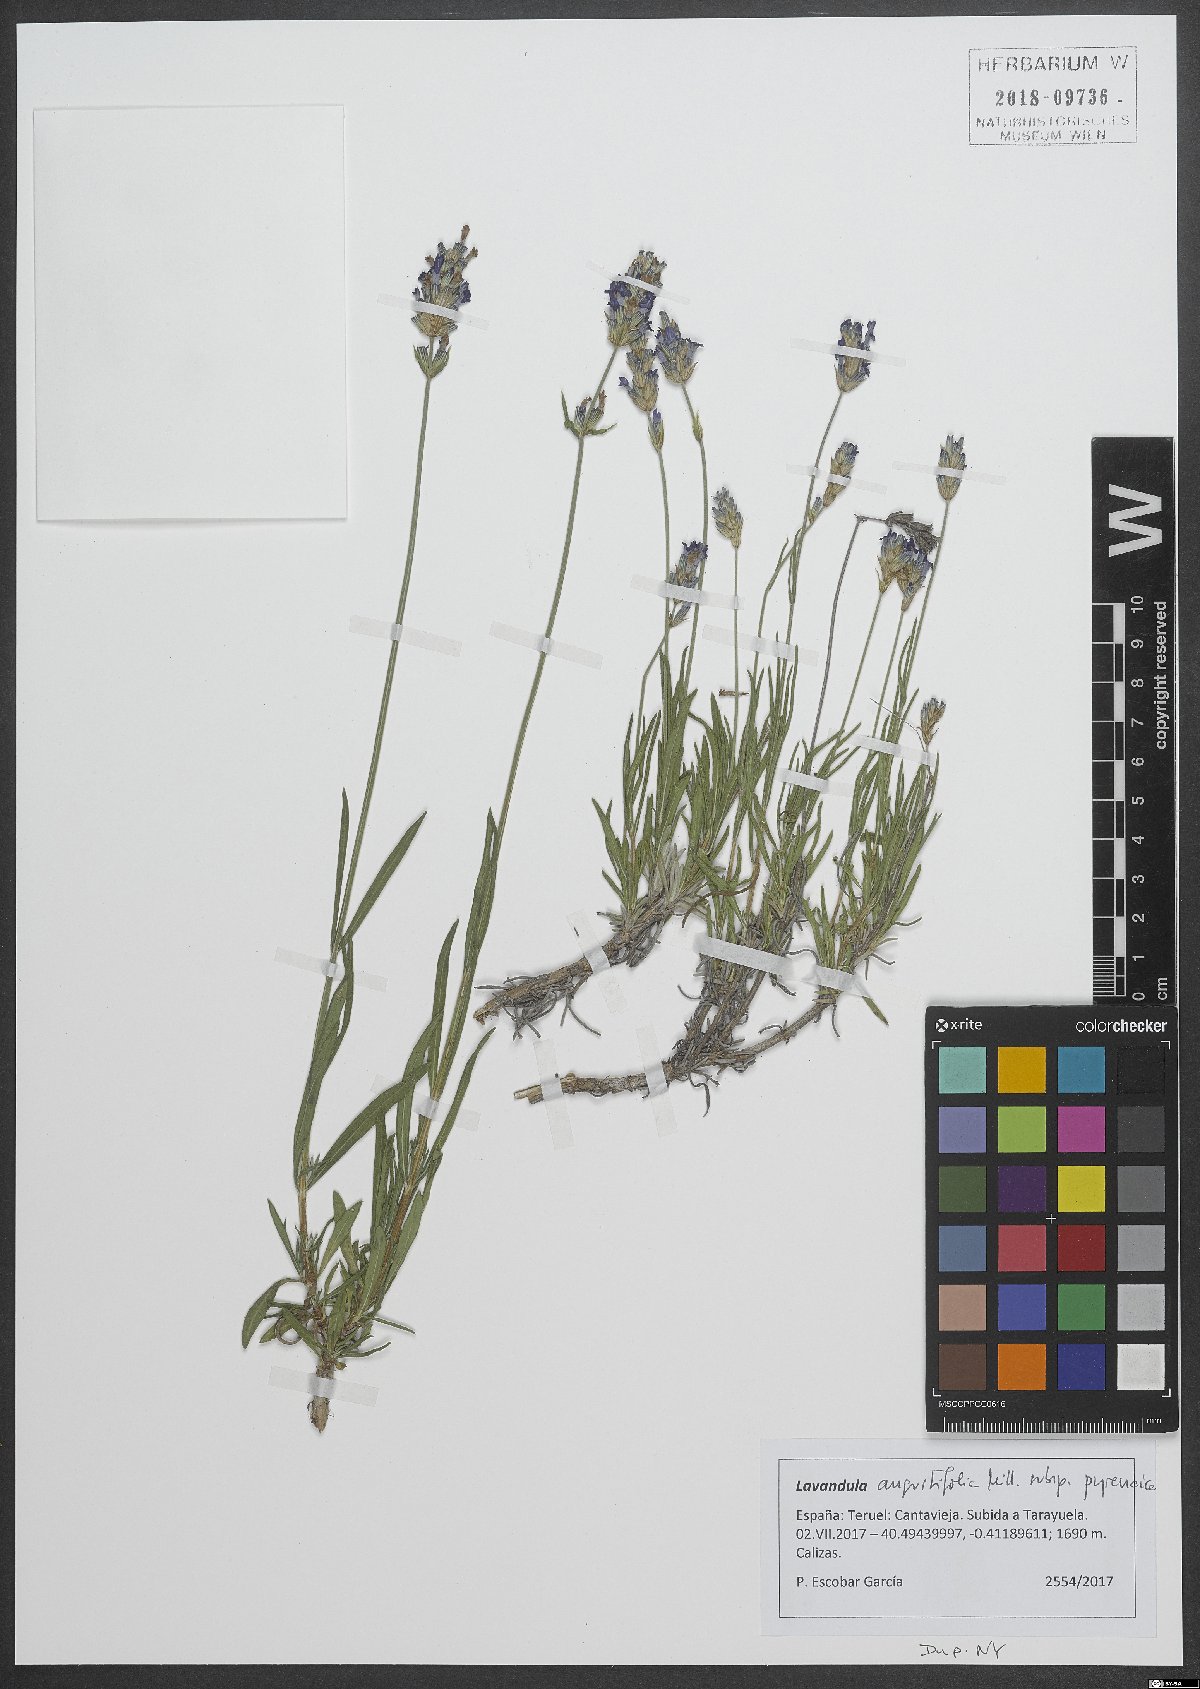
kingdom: Plantae
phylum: Tracheophyta
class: Magnoliopsida
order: Lamiales
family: Lamiaceae
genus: Lavandula
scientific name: Lavandula angustifolia
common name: Garden lavender
